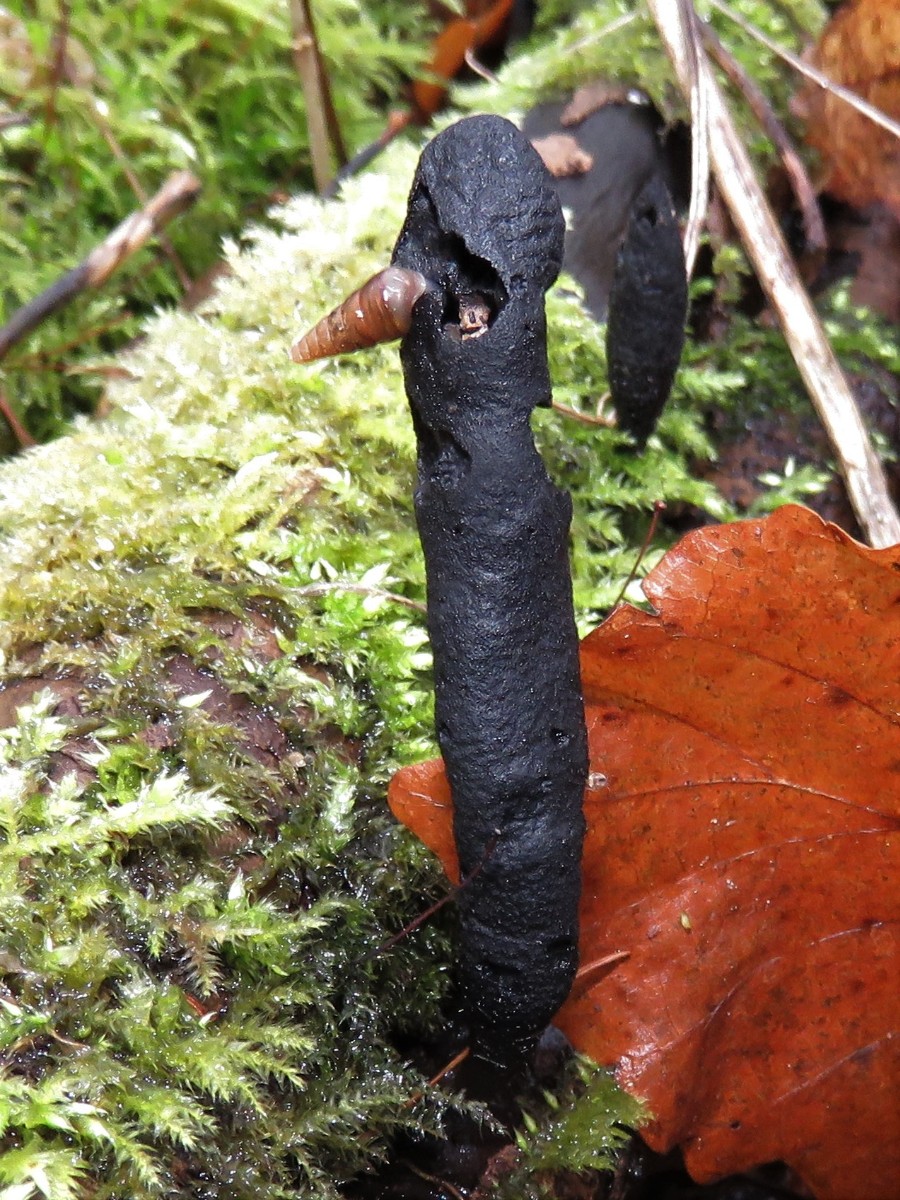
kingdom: Fungi
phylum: Ascomycota
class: Sordariomycetes
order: Xylariales
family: Xylariaceae
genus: Xylaria
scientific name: Xylaria longipes
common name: slank stødsvamp
